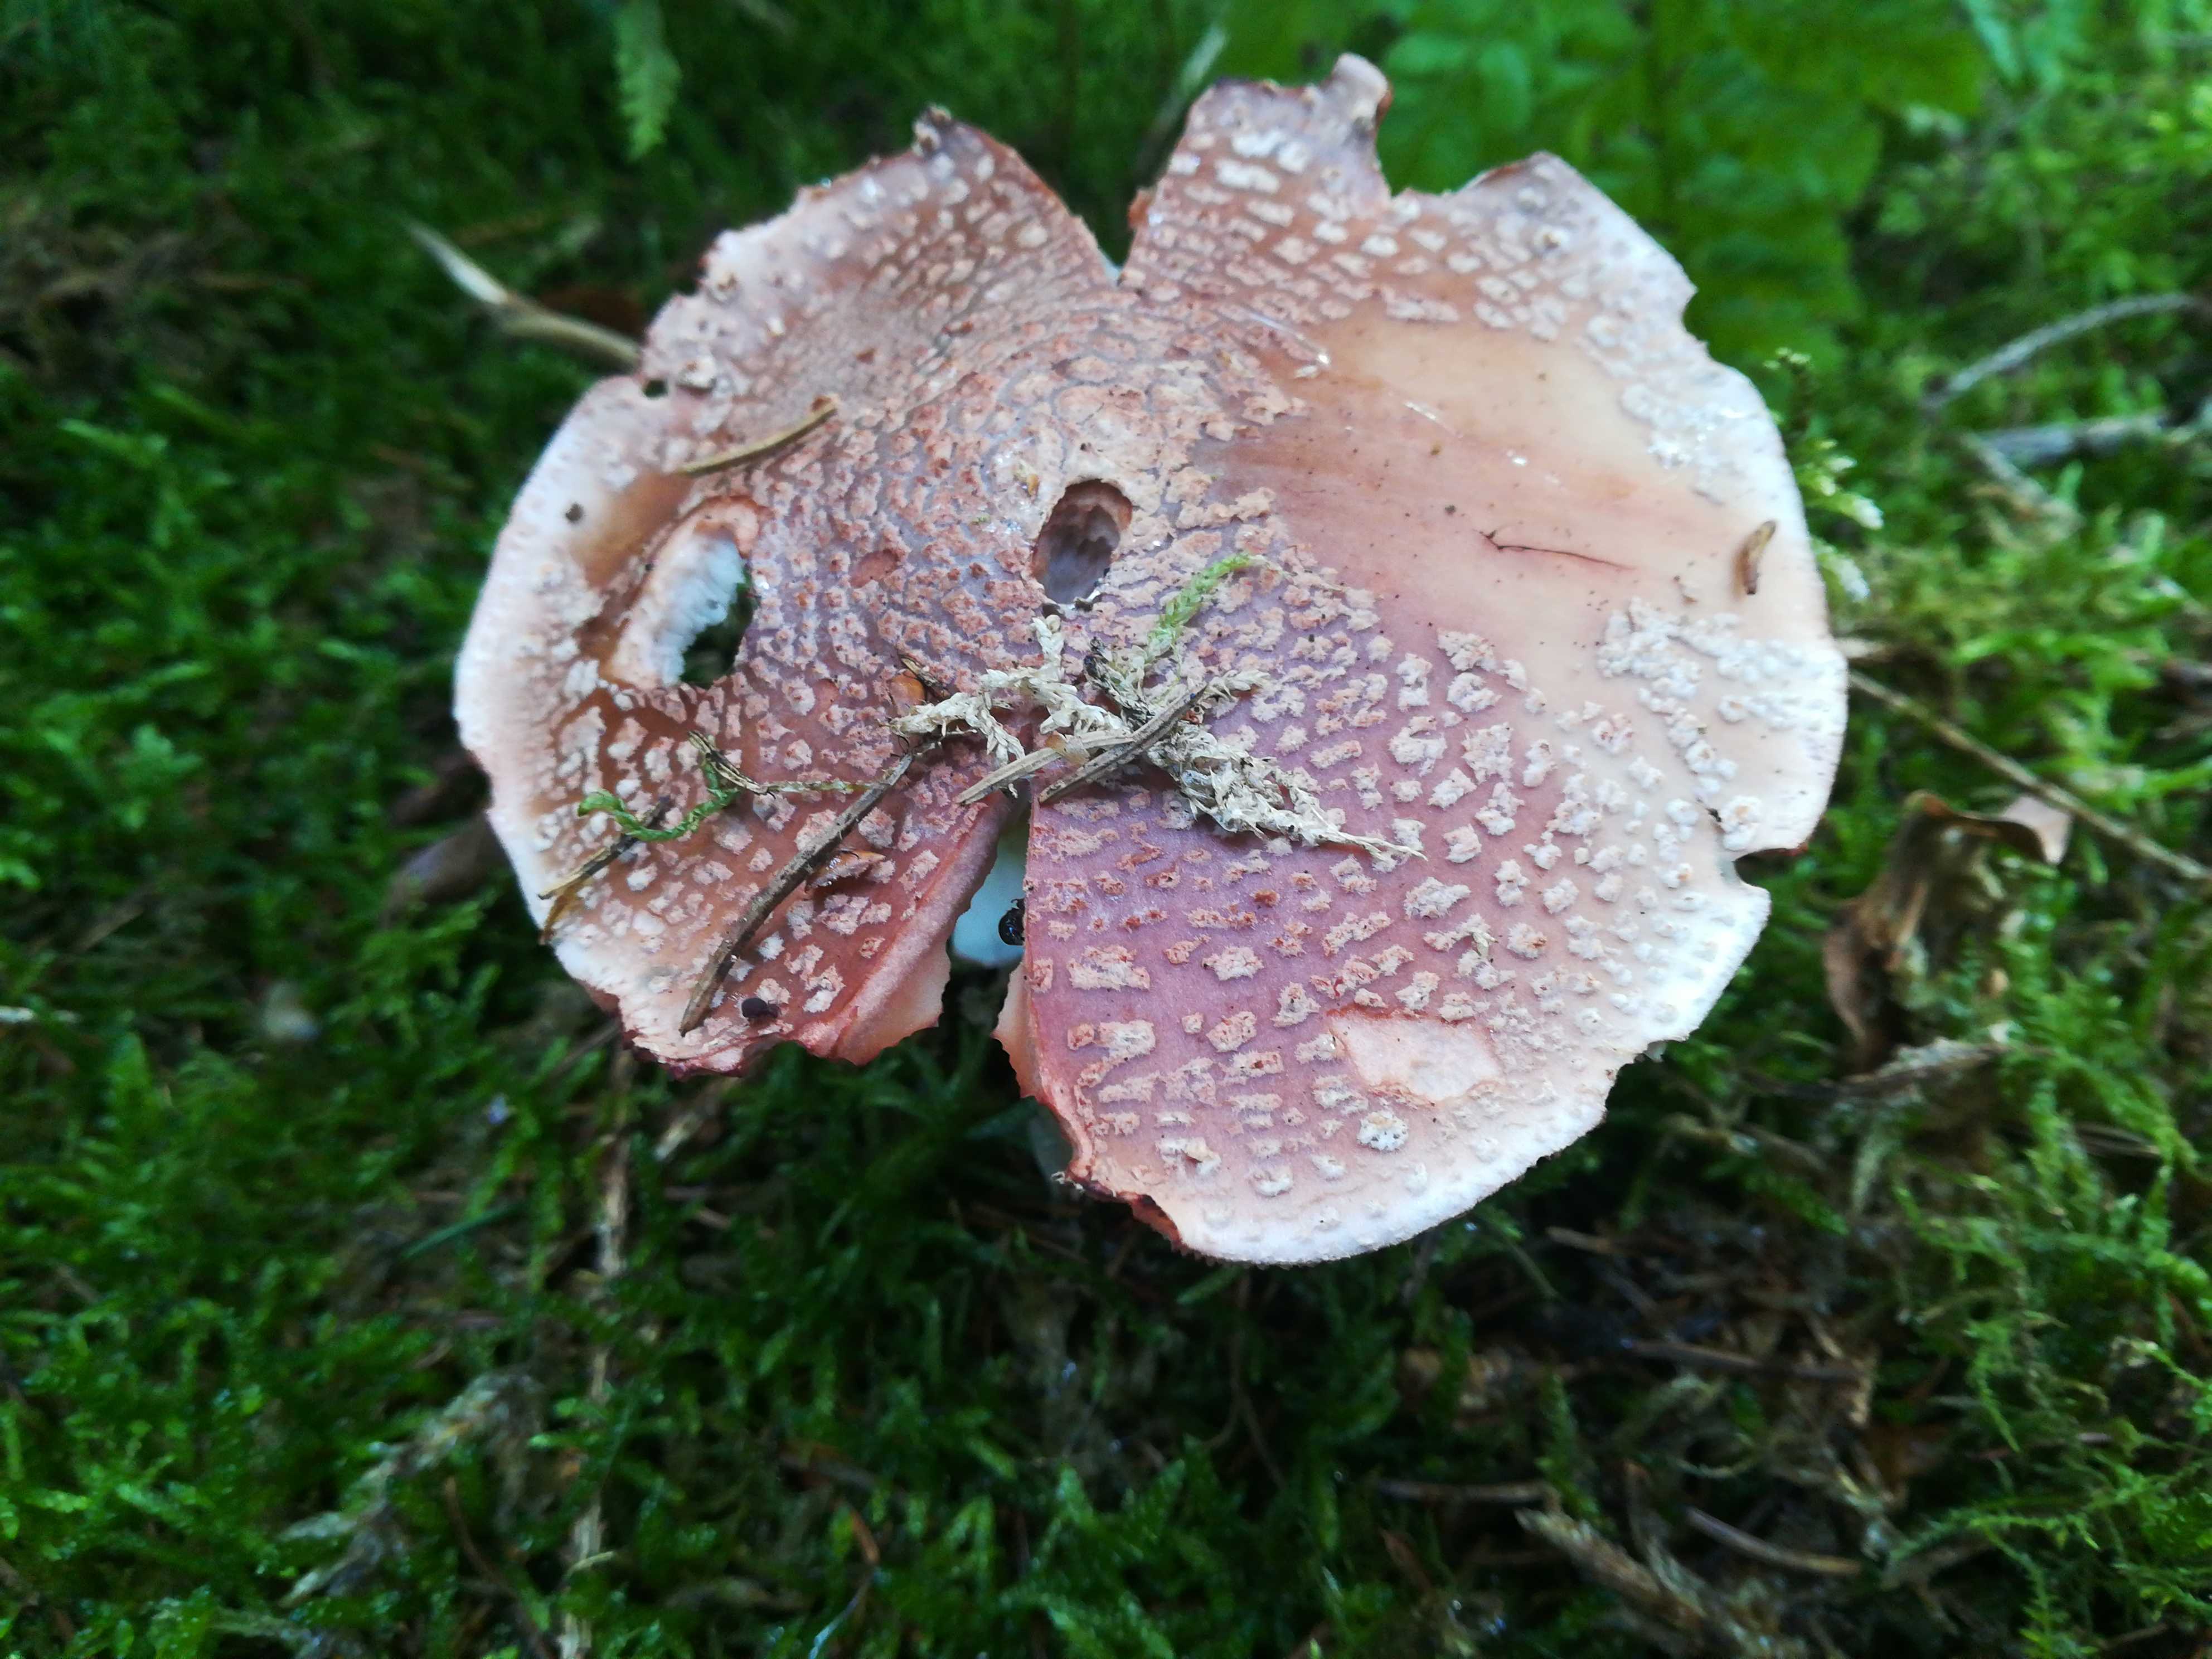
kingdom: Fungi
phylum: Basidiomycota
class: Agaricomycetes
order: Agaricales
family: Amanitaceae
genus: Amanita
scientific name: Amanita rubescens
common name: rødmende fluesvamp
